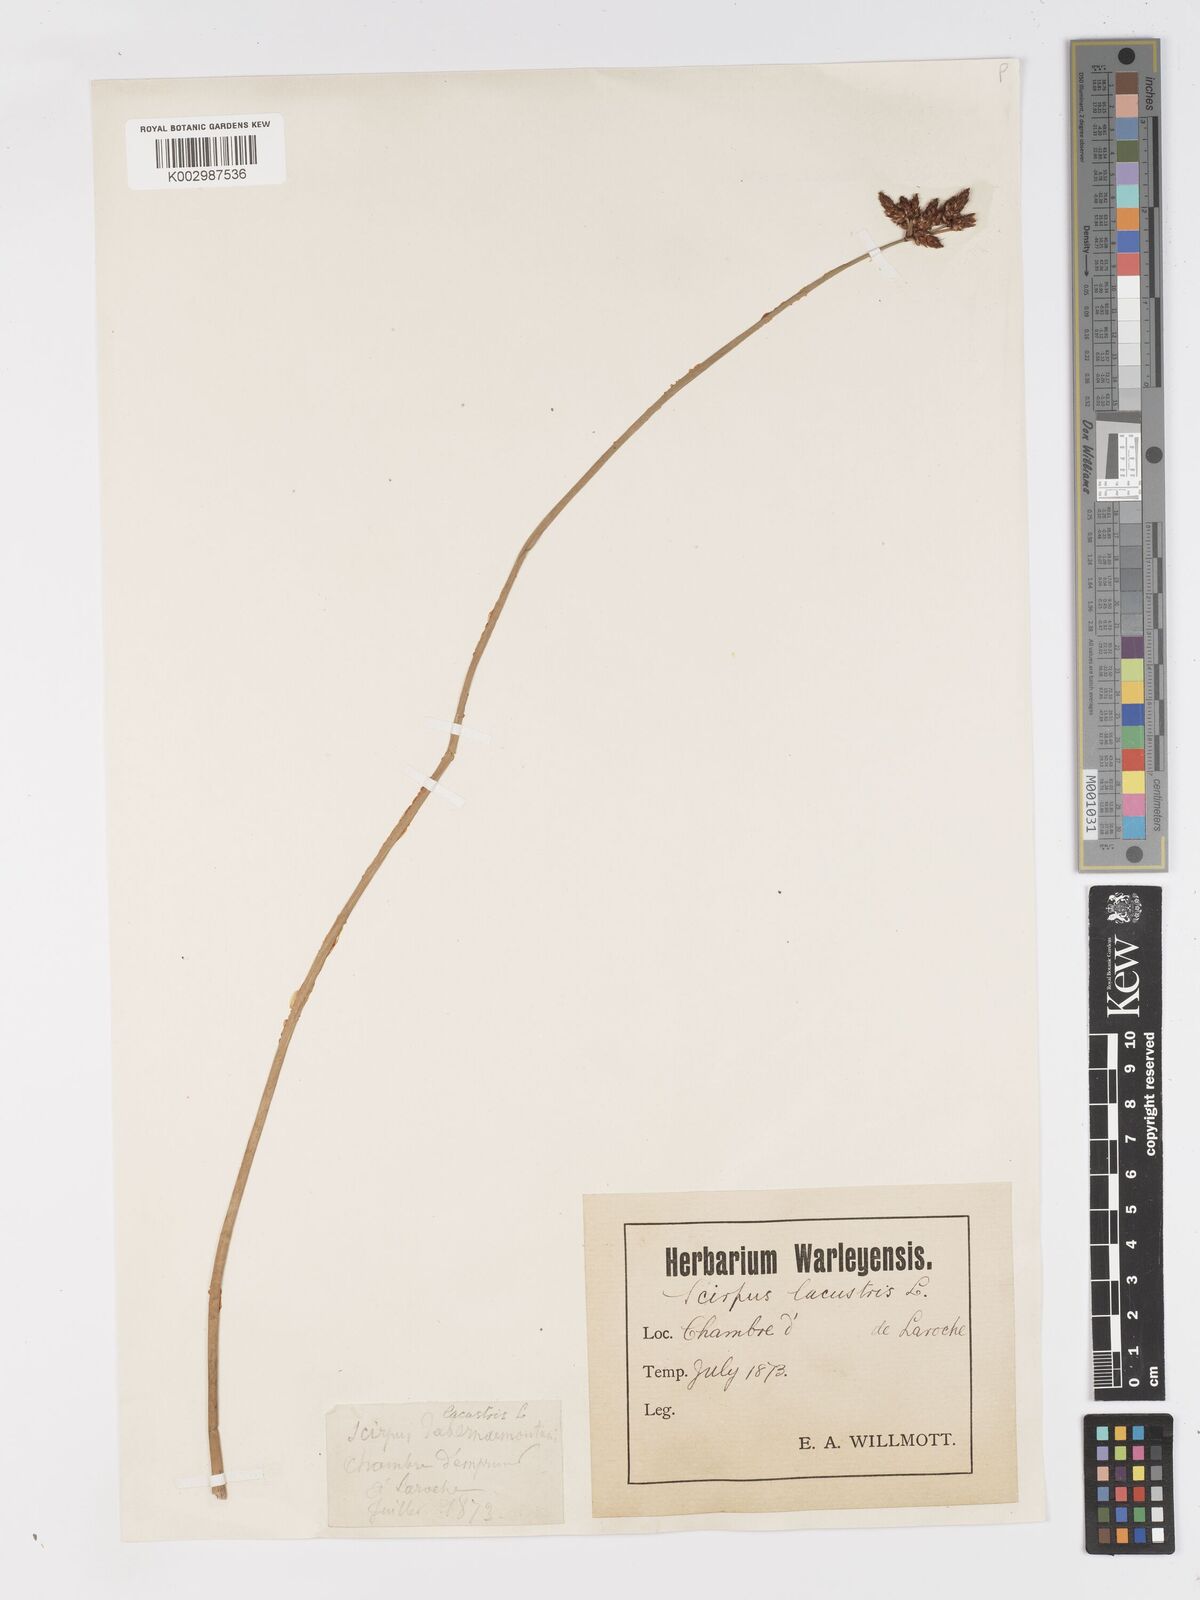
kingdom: Plantae
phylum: Tracheophyta
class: Liliopsida
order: Poales
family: Cyperaceae
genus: Schoenoplectus
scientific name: Schoenoplectus lacustris
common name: Common club-rush
